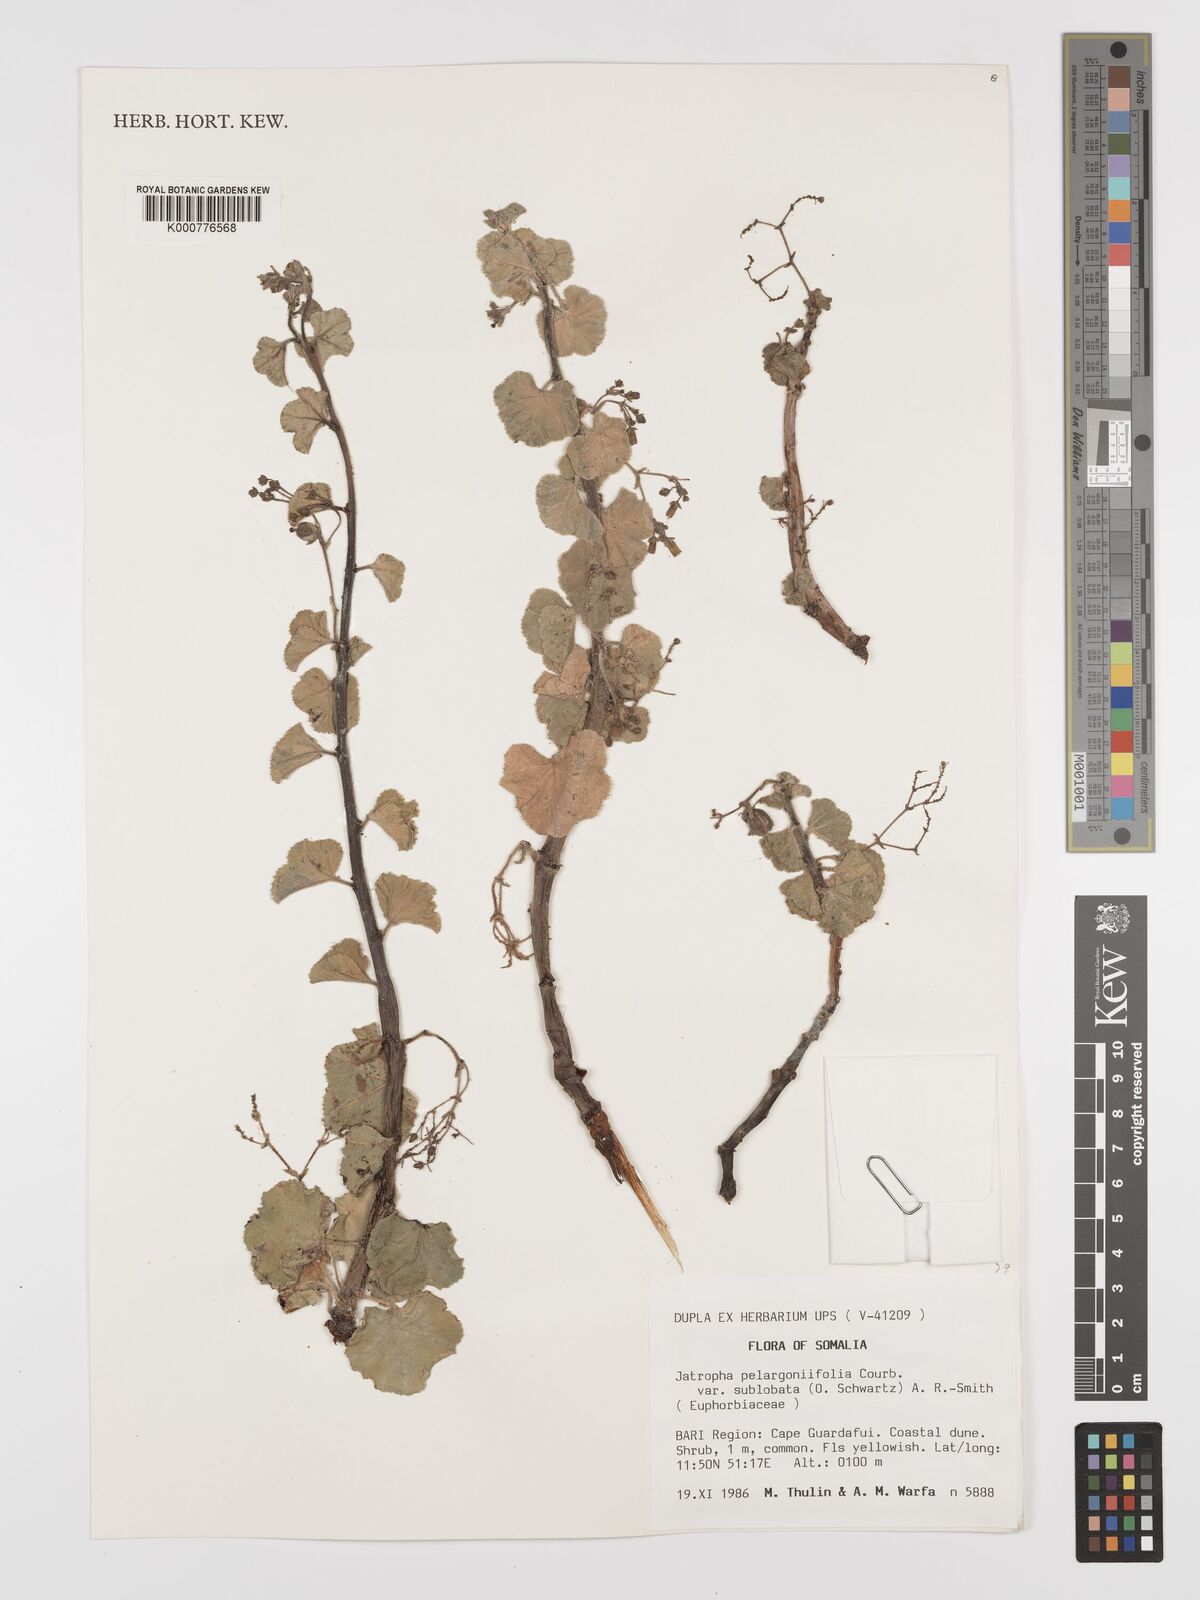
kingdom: Plantae
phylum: Tracheophyta
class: Magnoliopsida
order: Malpighiales
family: Euphorbiaceae
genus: Jatropha
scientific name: Jatropha pelargoniifolia
